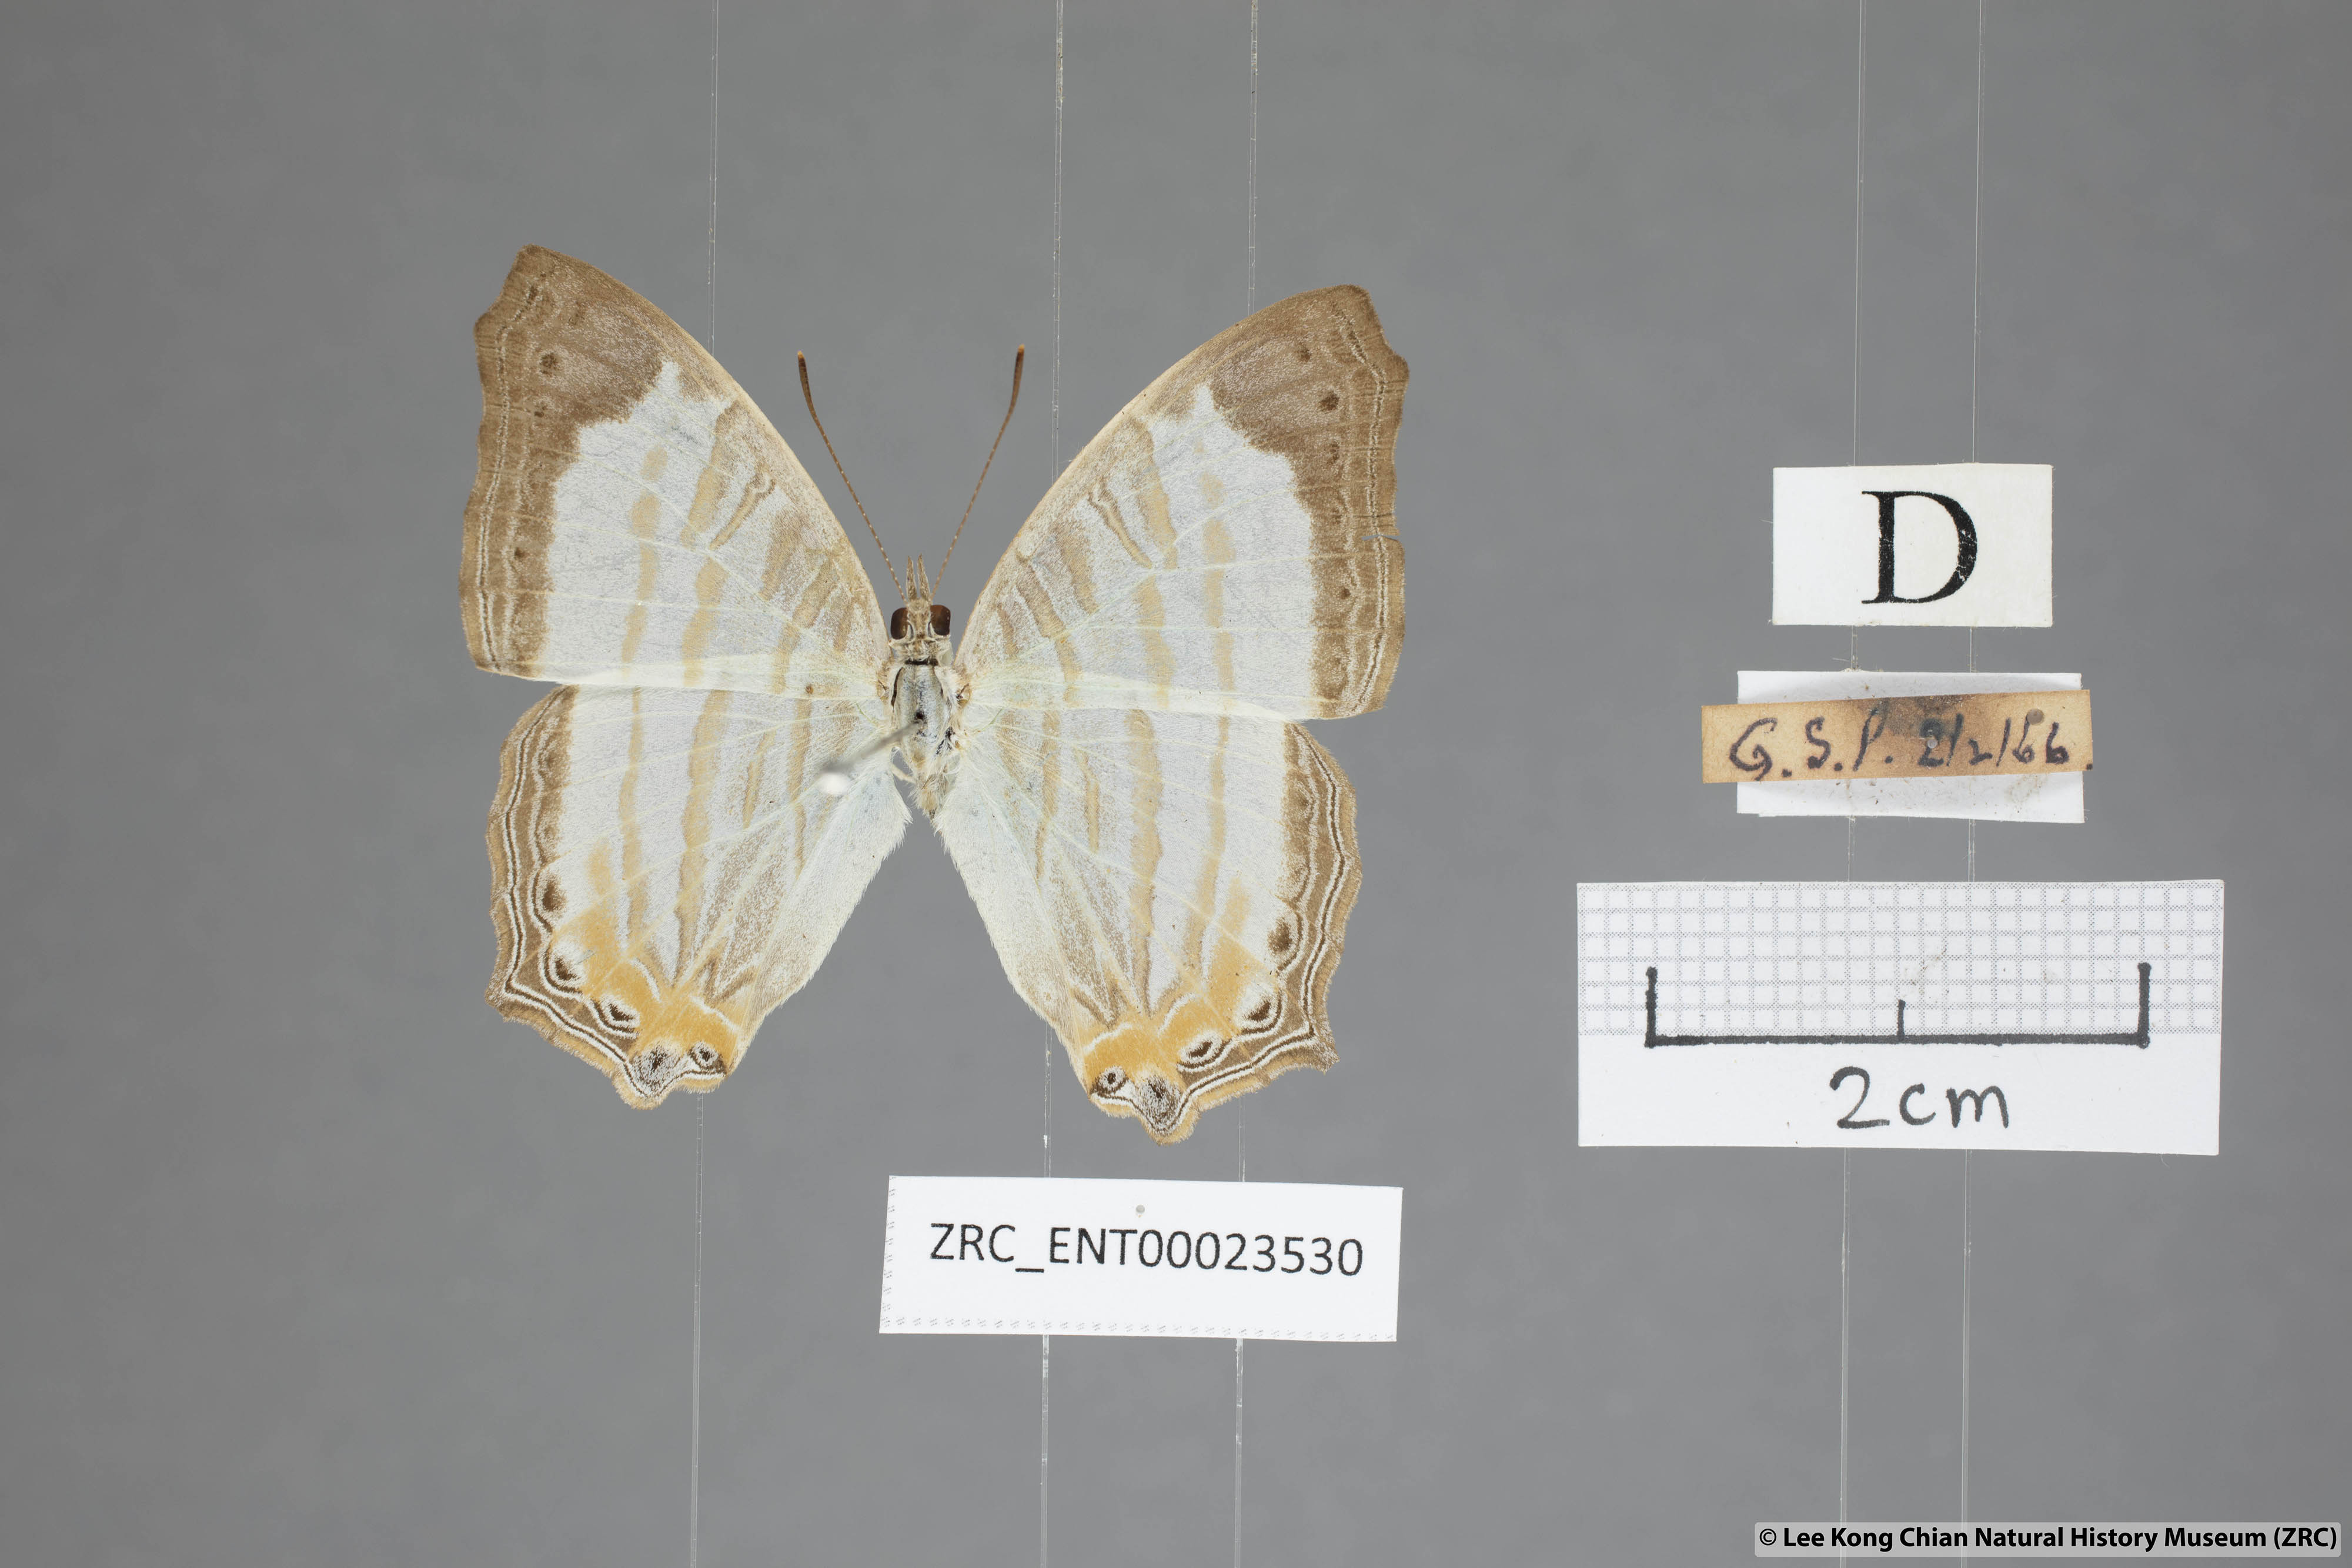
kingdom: Animalia
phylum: Arthropoda
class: Insecta
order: Lepidoptera
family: Nymphalidae
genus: Cyrestis
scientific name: Cyrestis themire
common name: Little mapwing
